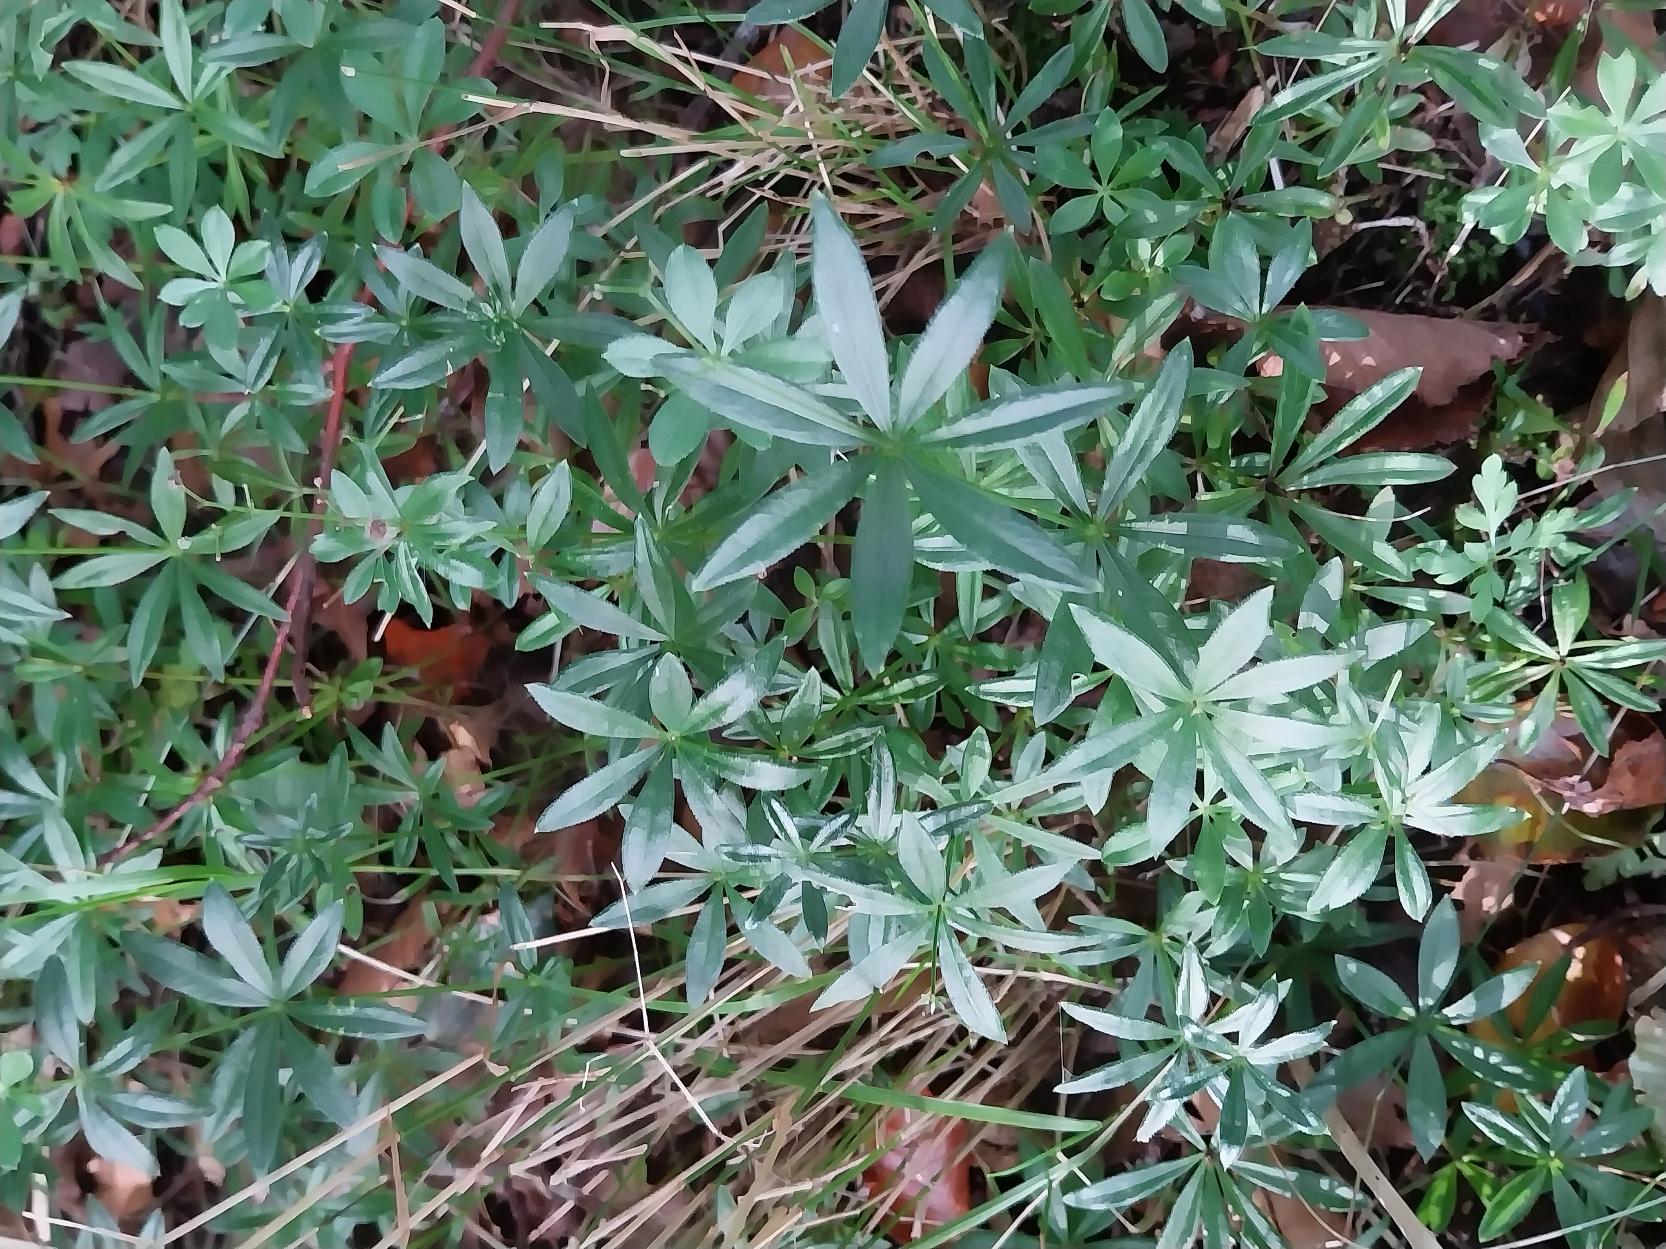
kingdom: Plantae
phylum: Tracheophyta
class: Magnoliopsida
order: Gentianales
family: Rubiaceae
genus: Galium
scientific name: Galium odoratum
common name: Skovmærke
